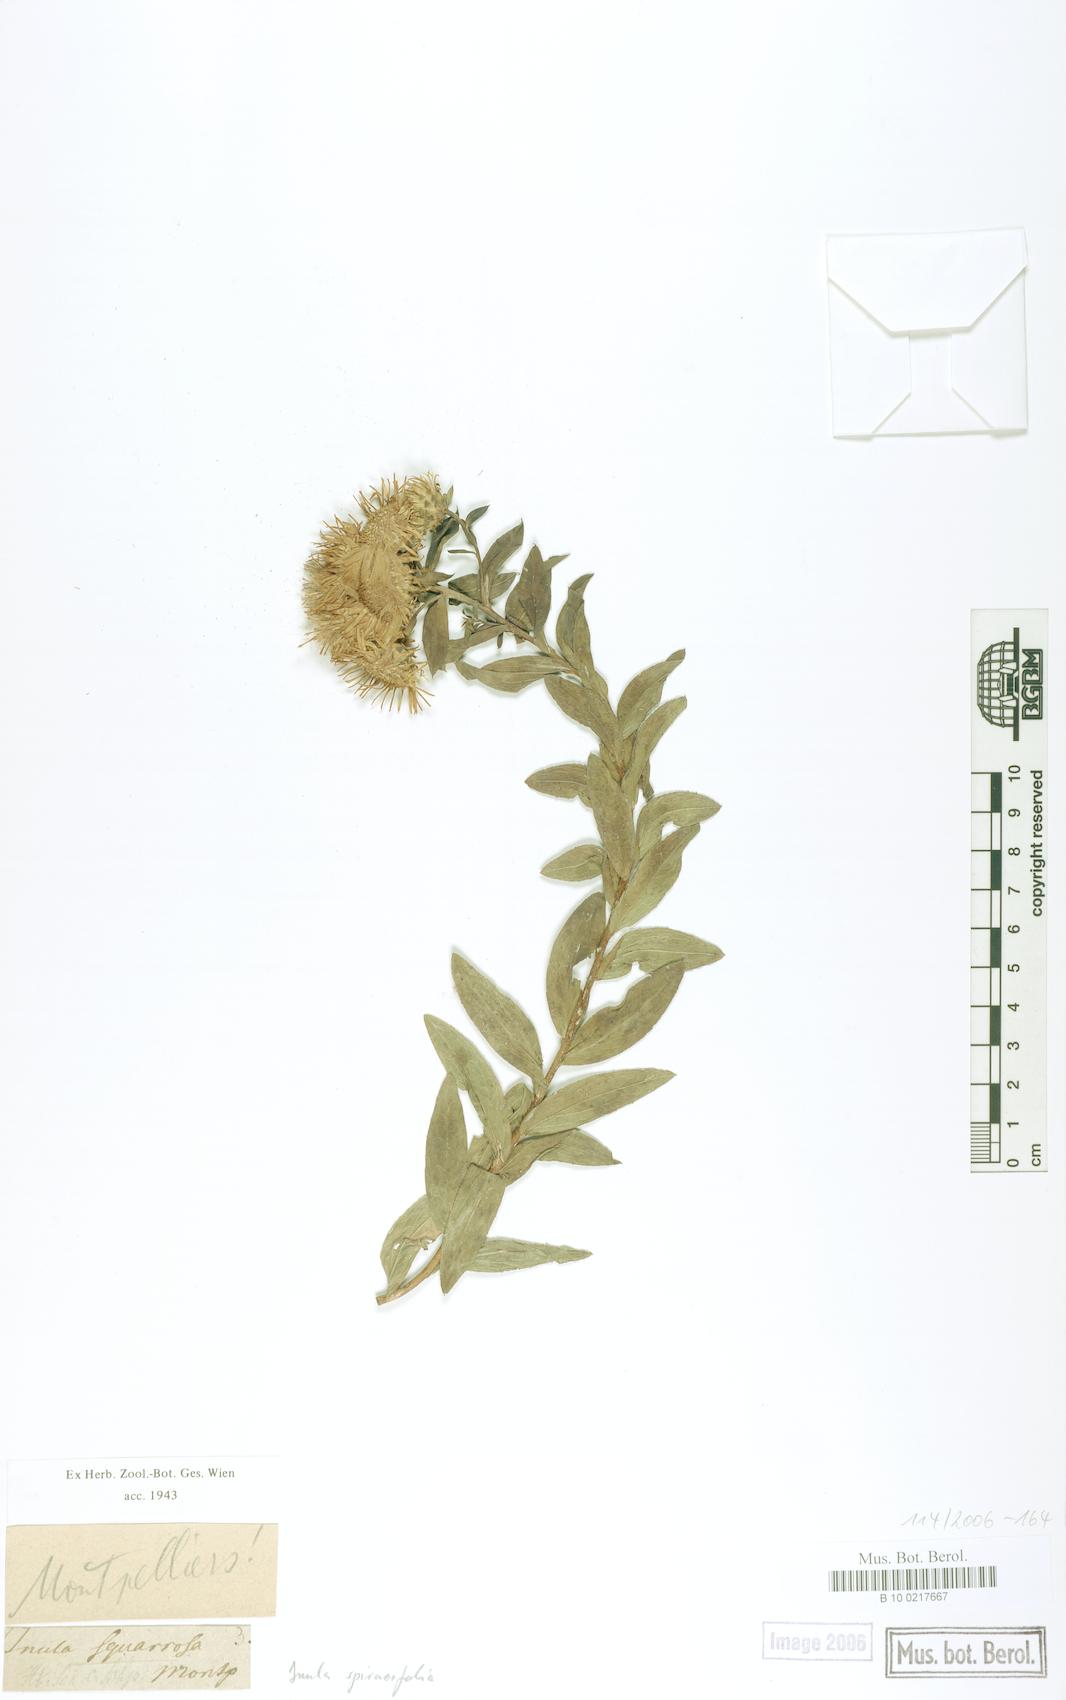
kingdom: Plantae
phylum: Tracheophyta
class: Magnoliopsida
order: Asterales
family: Asteraceae
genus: Pentanema
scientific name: Pentanema spiraeifolium
